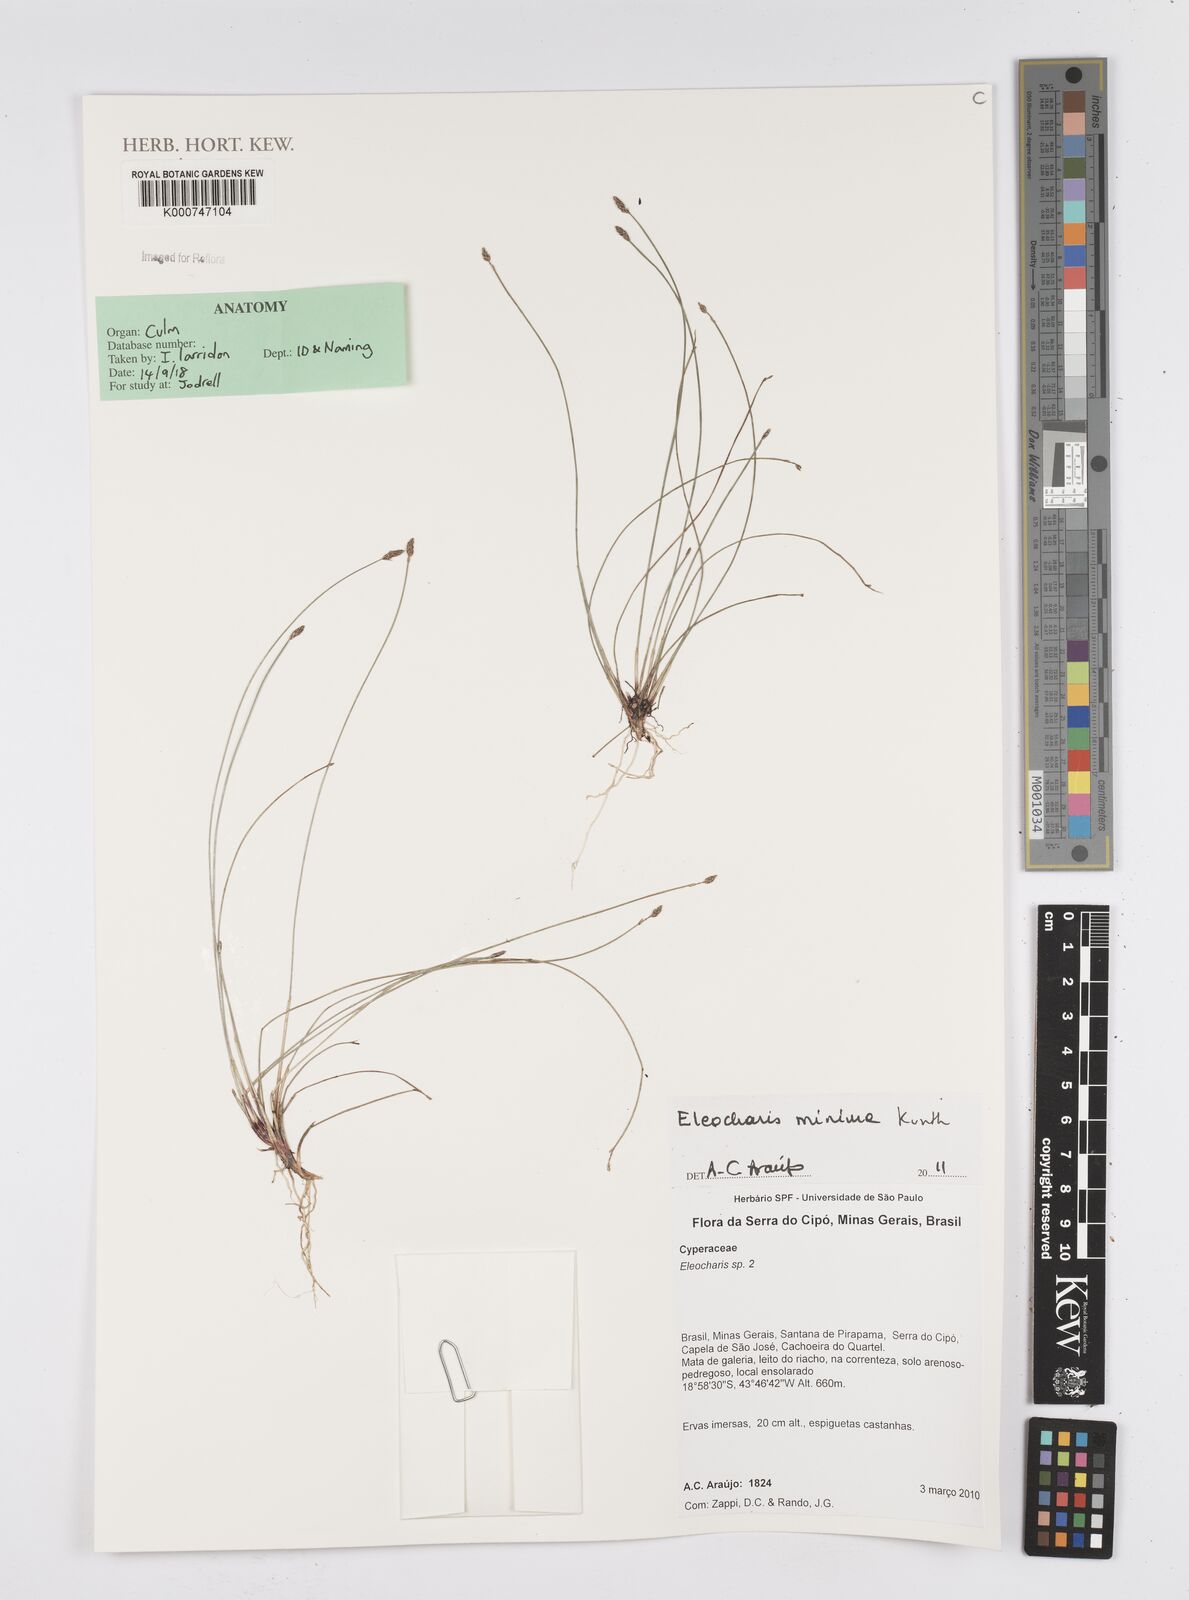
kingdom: Plantae
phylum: Tracheophyta
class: Liliopsida
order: Poales
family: Cyperaceae
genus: Eleocharis
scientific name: Eleocharis minima
